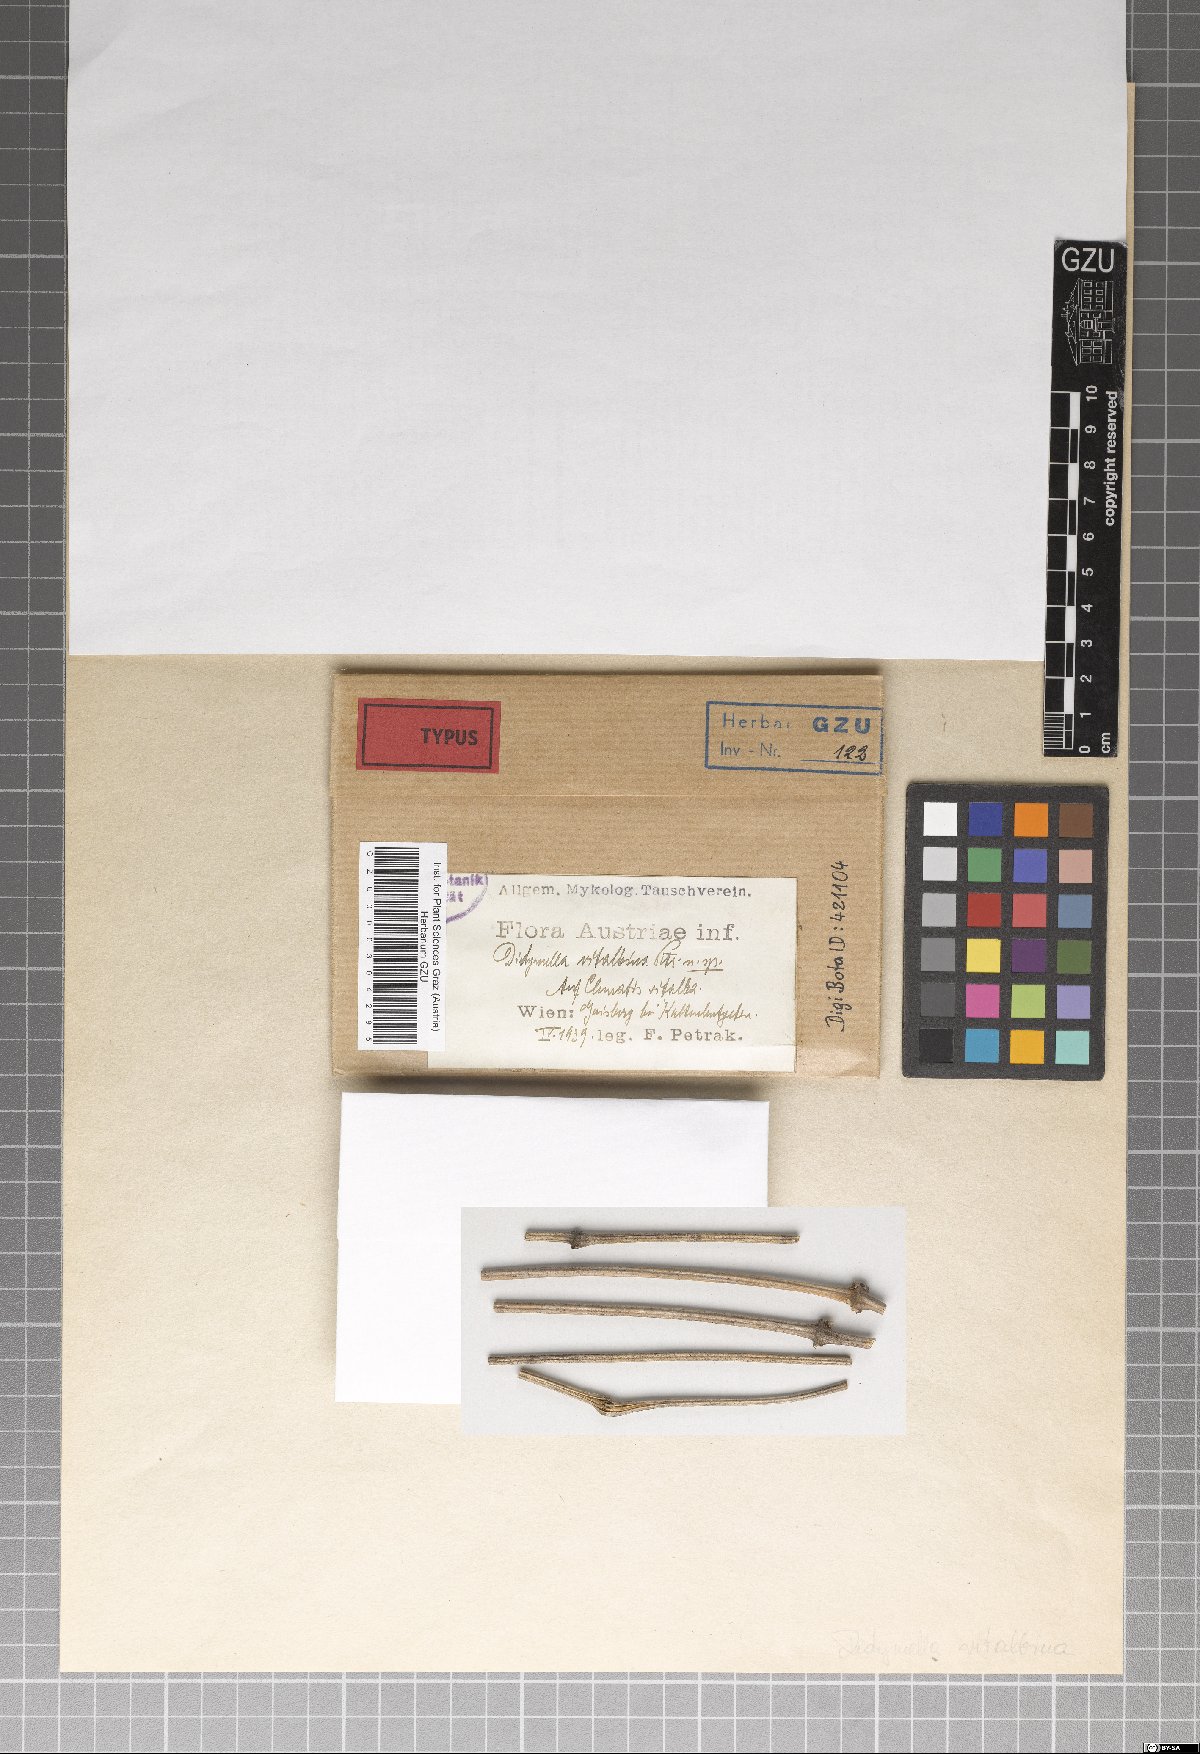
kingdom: Fungi
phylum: Ascomycota
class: Dothideomycetes
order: Pleosporales
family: Didymellaceae
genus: Didymella
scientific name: Didymella vitalbina
